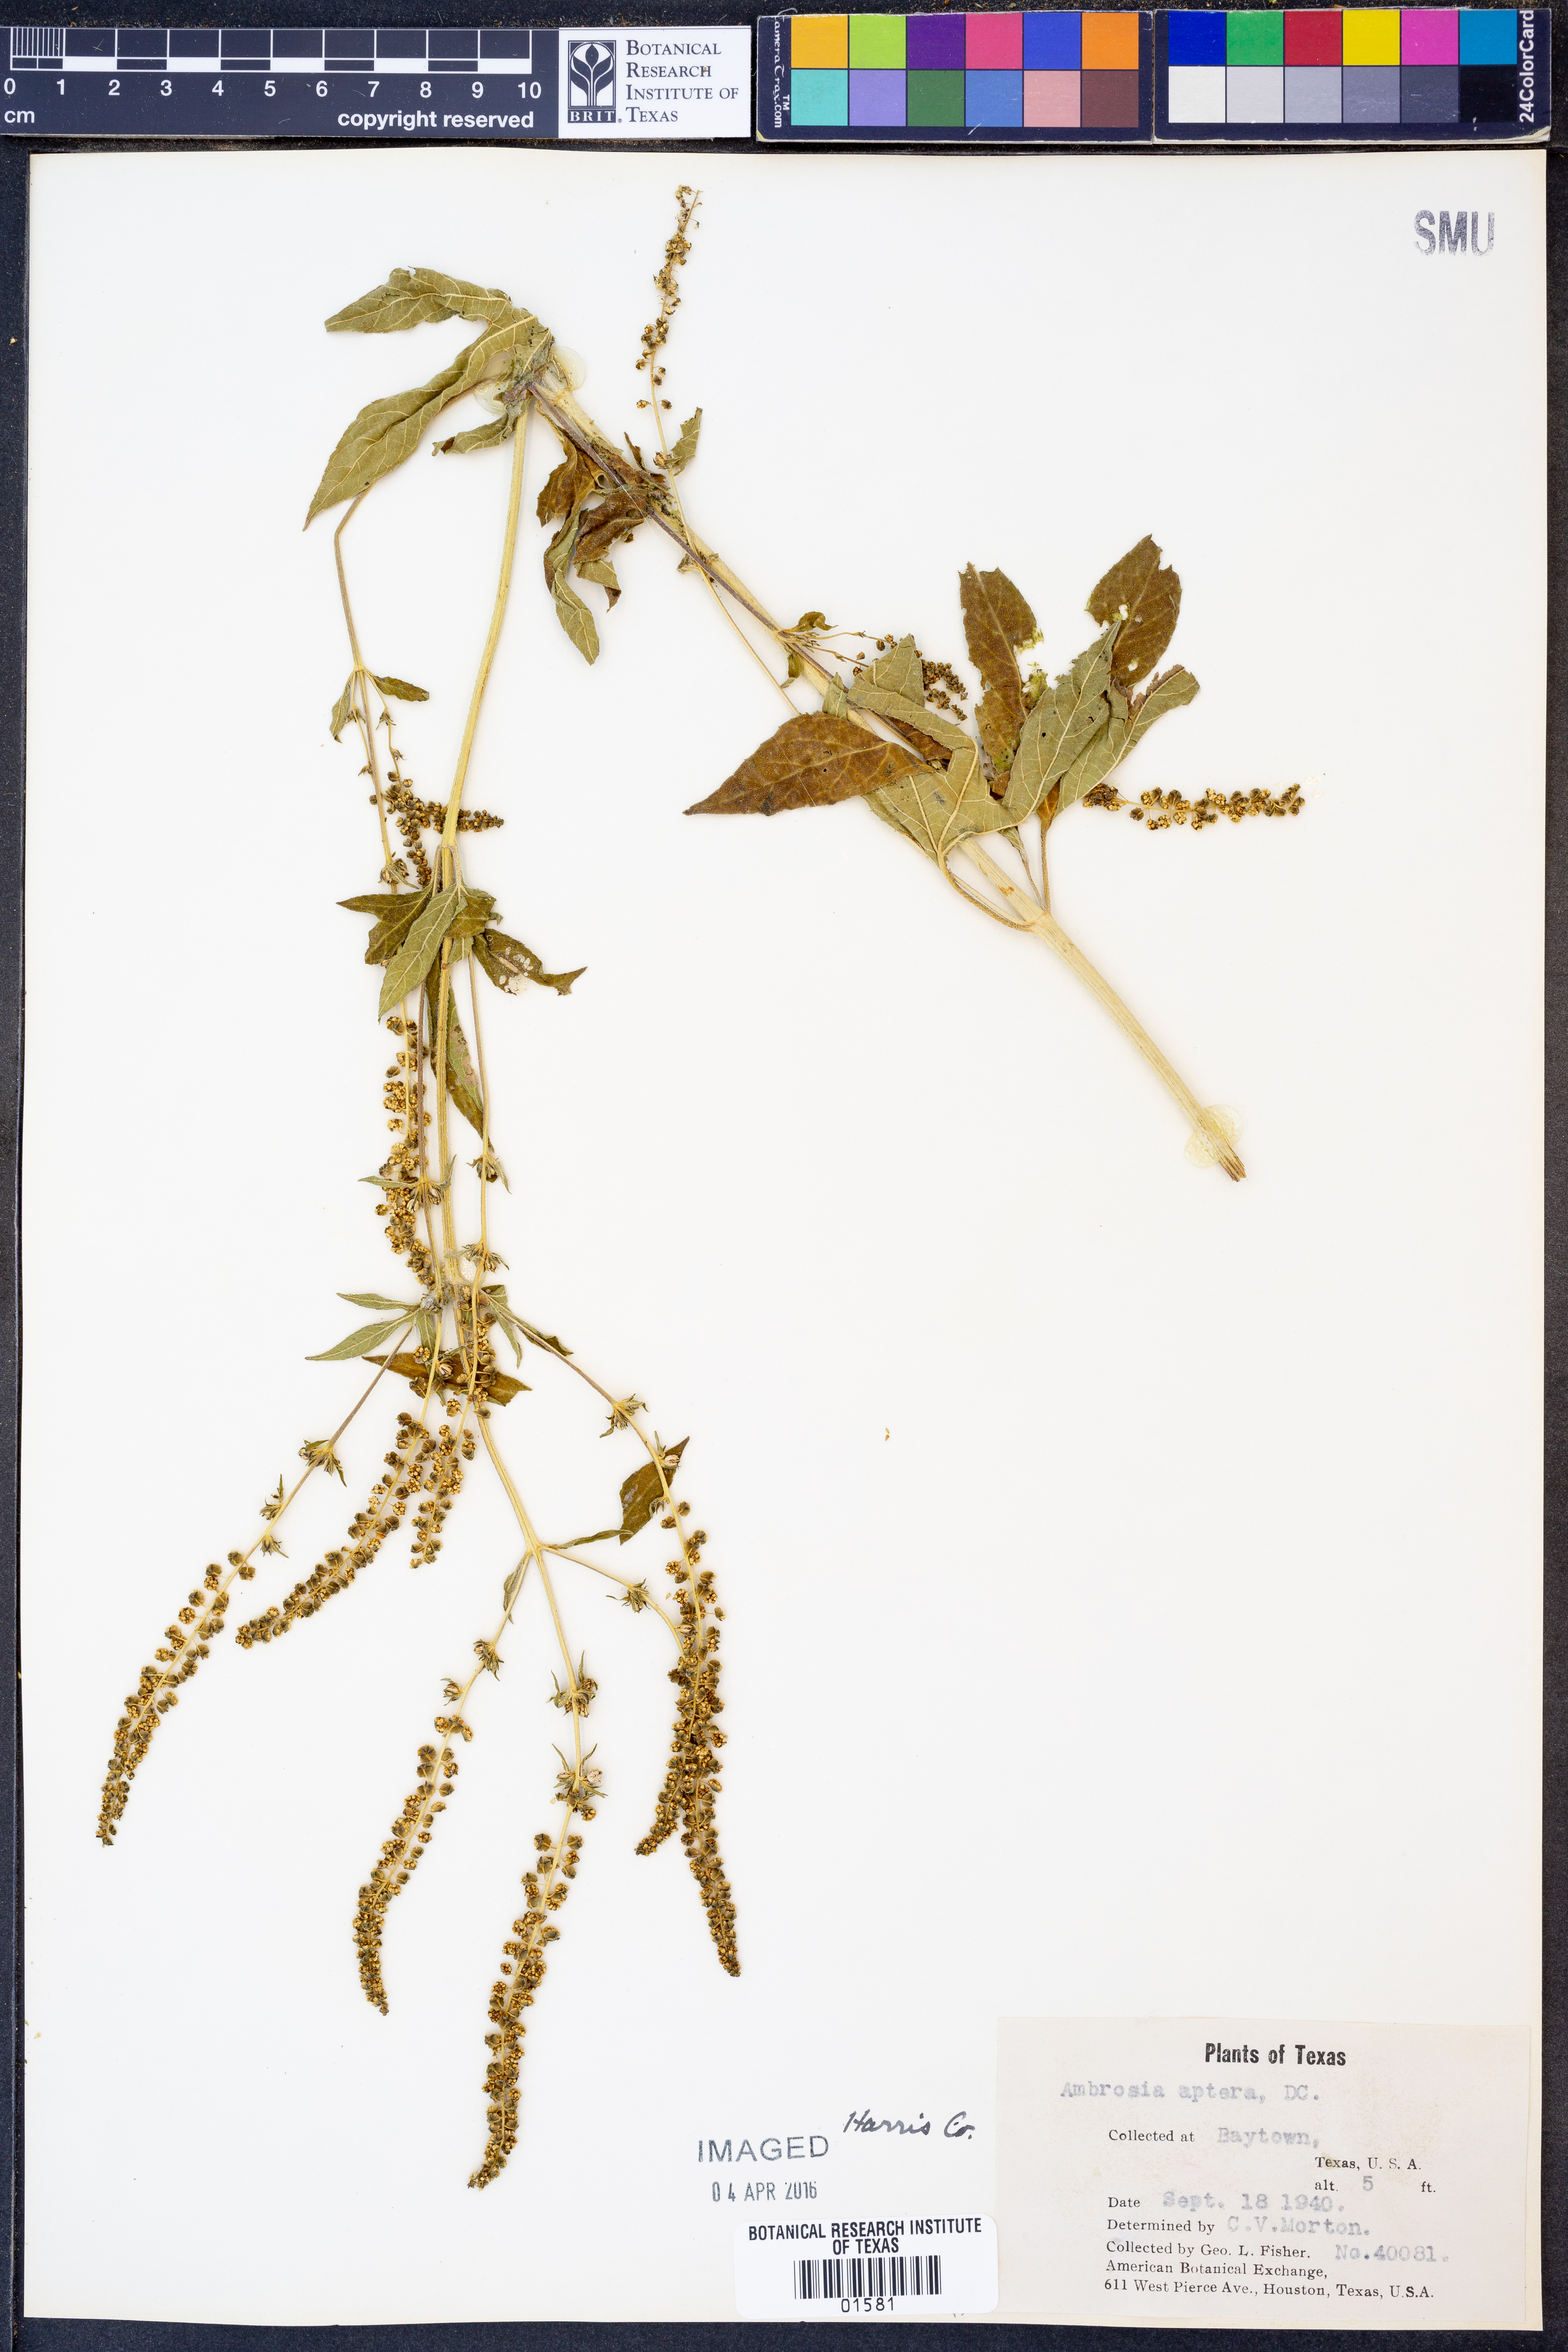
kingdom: Plantae
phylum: Tracheophyta
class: Magnoliopsida
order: Asterales
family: Asteraceae
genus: Ambrosia
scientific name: Ambrosia trifida
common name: Giant ragweed
